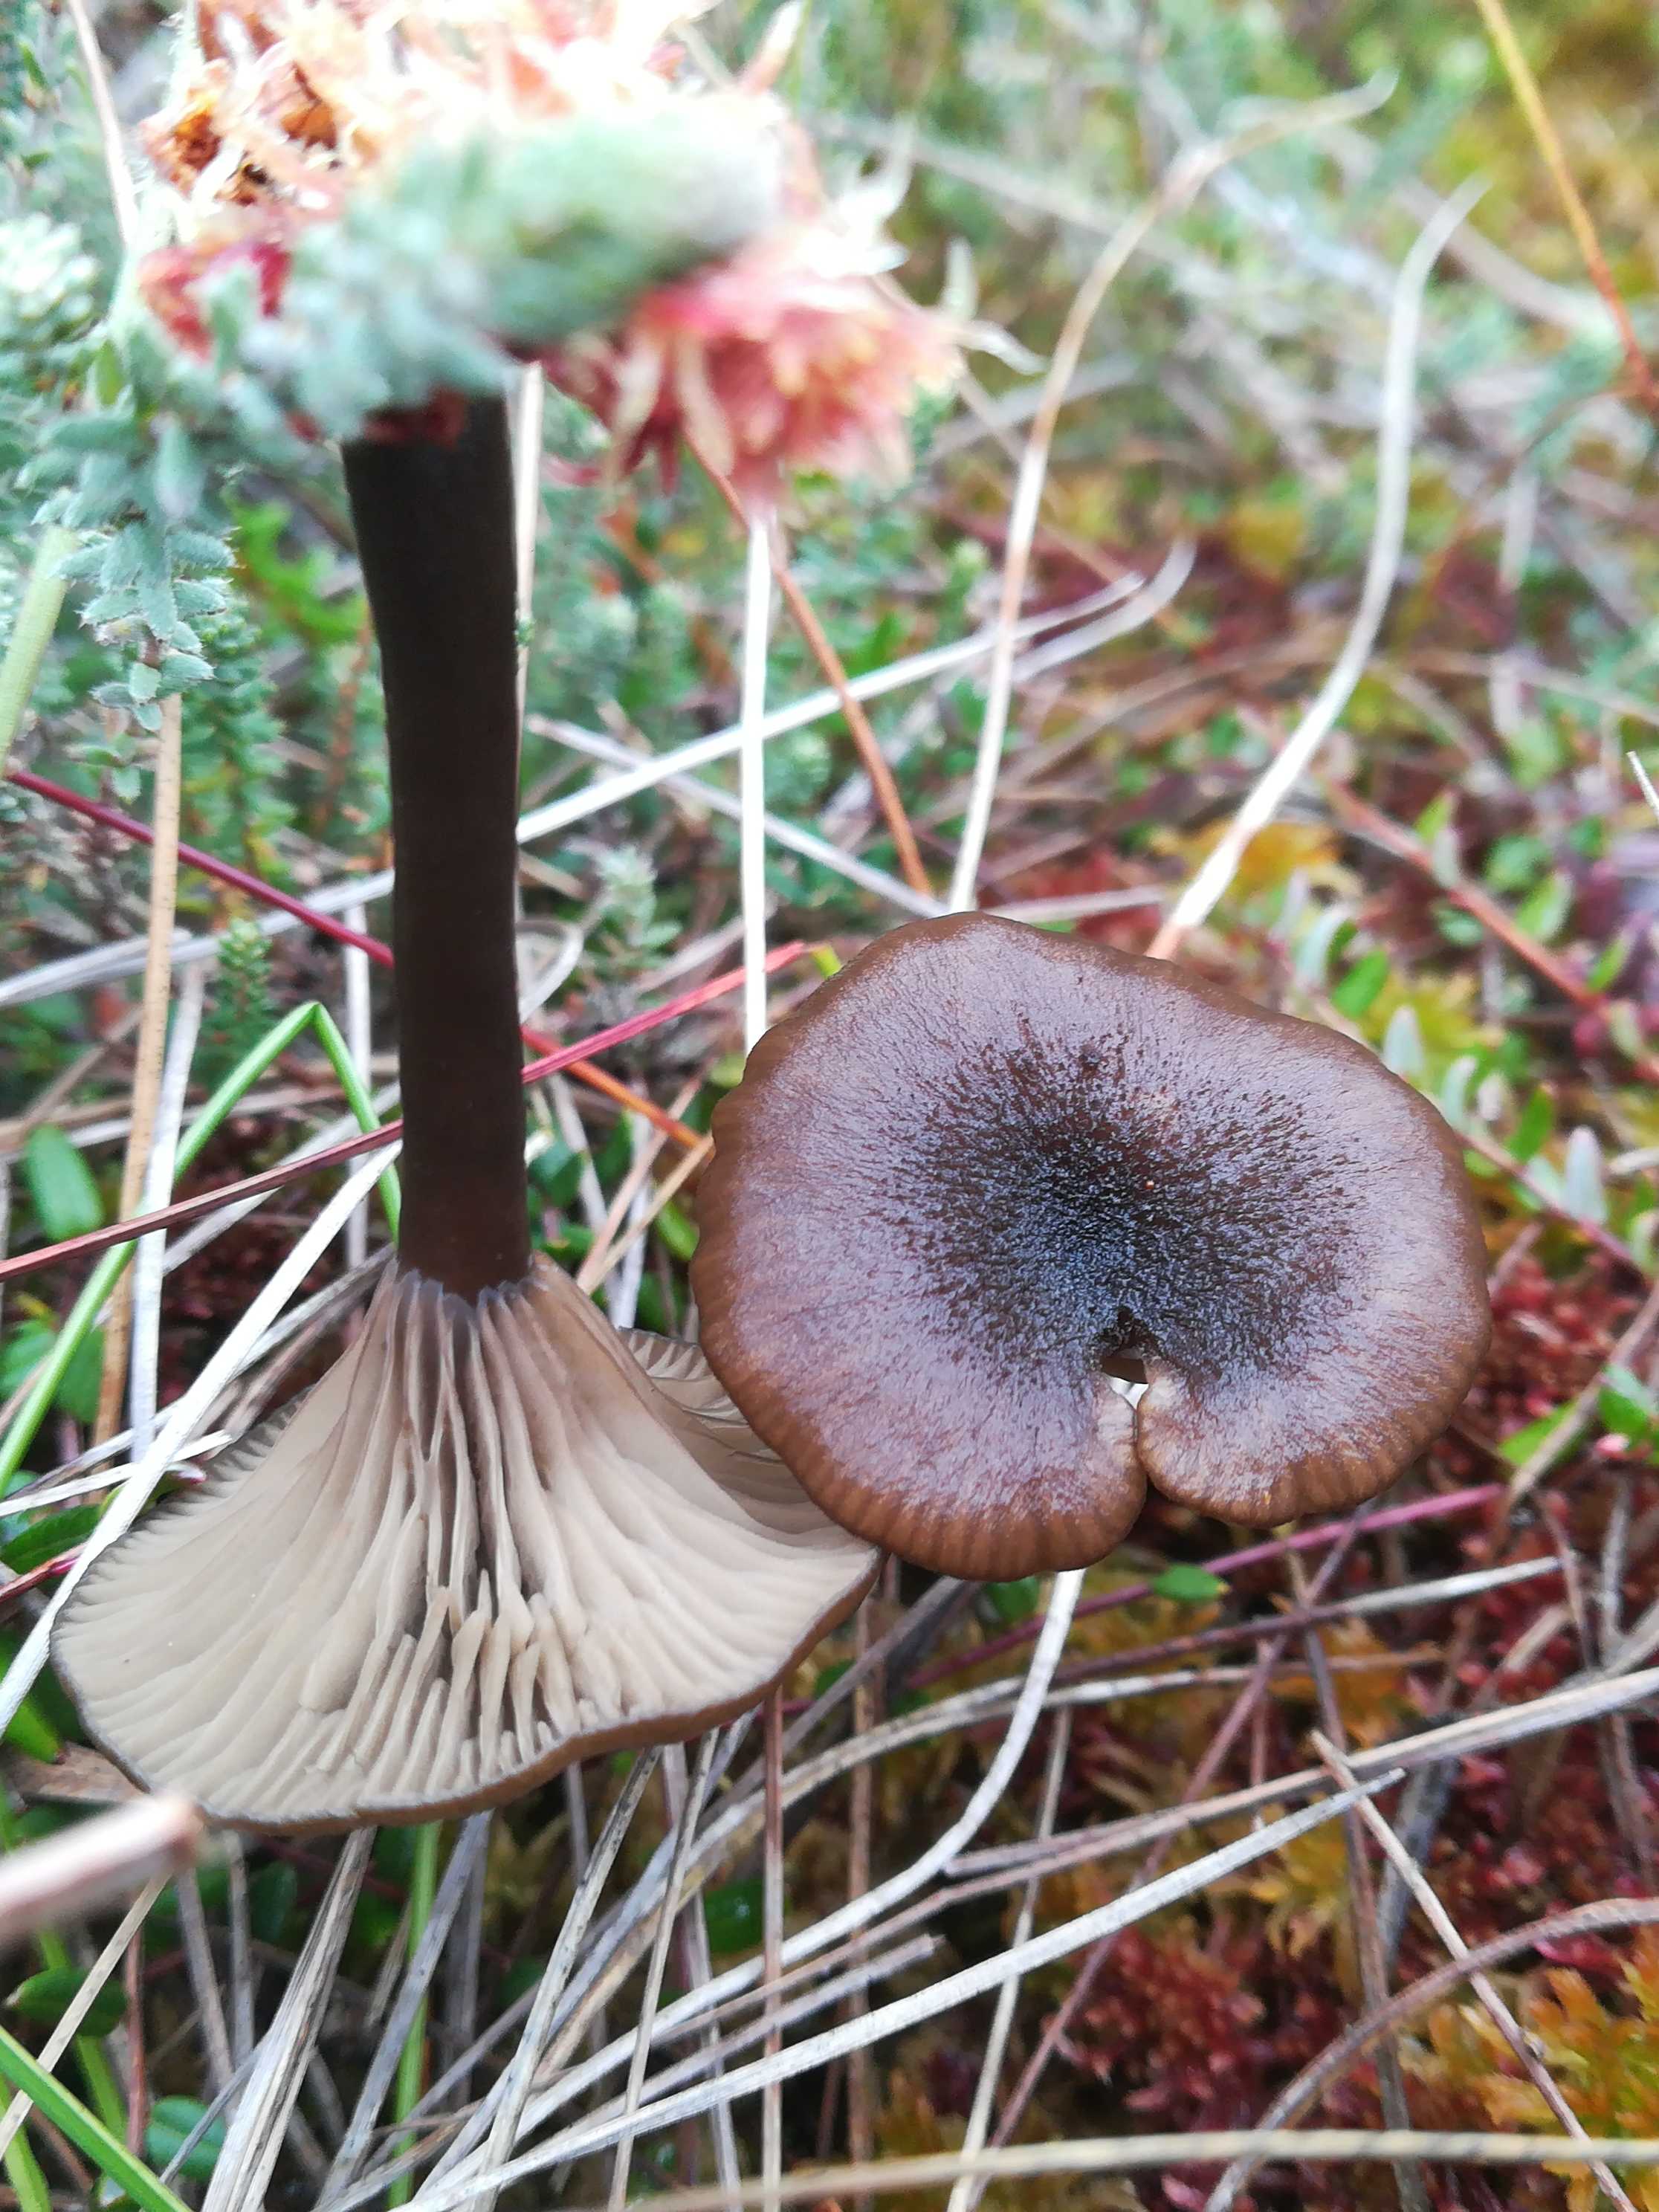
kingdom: Fungi
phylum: Basidiomycota
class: Agaricomycetes
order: Agaricales
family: Hygrophoraceae
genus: Arrhenia
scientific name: Arrhenia gerardiana
